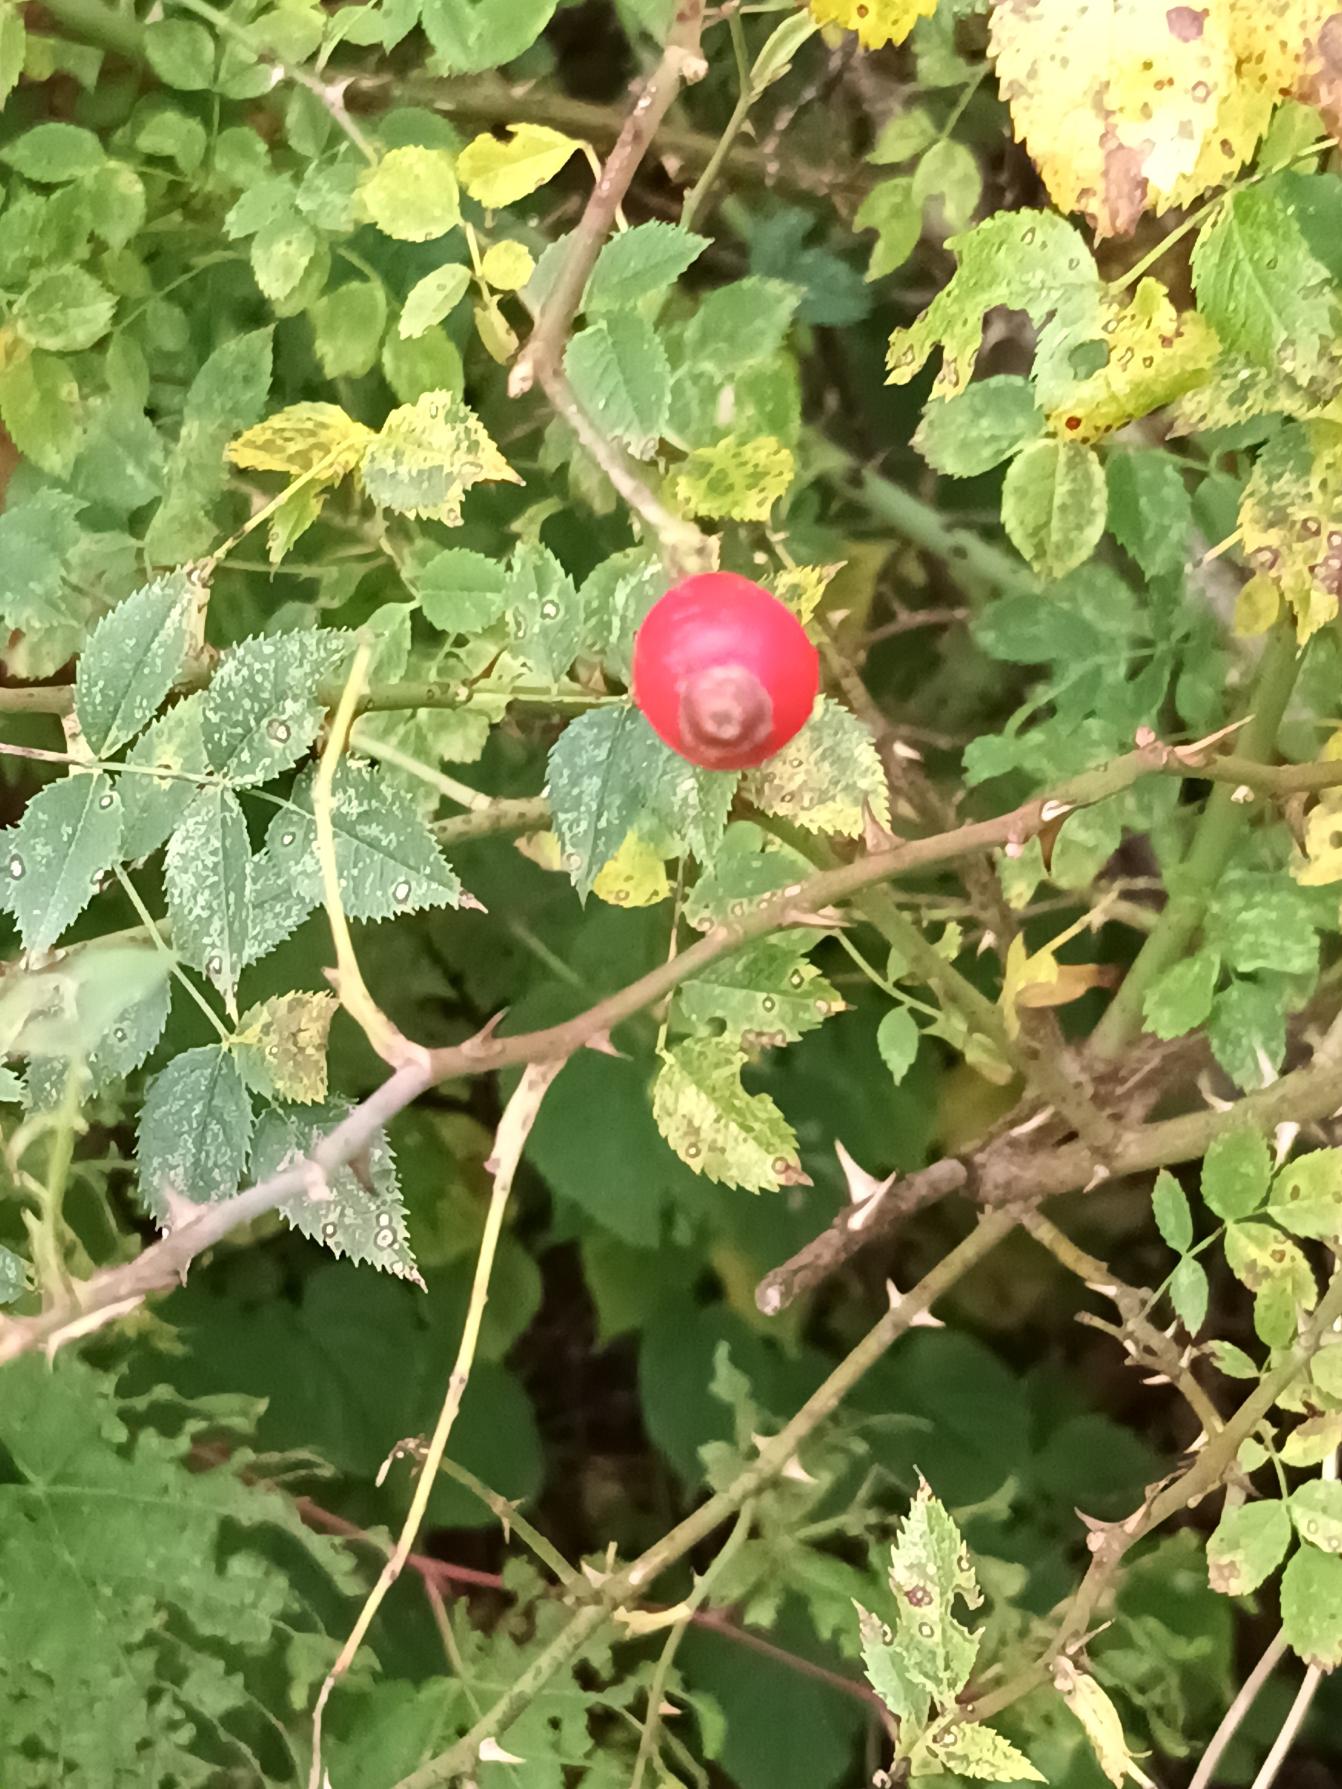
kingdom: Plantae
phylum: Tracheophyta
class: Magnoliopsida
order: Rosales
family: Rosaceae
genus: Rosa
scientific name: Rosa canina
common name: Glat hunde-rose
